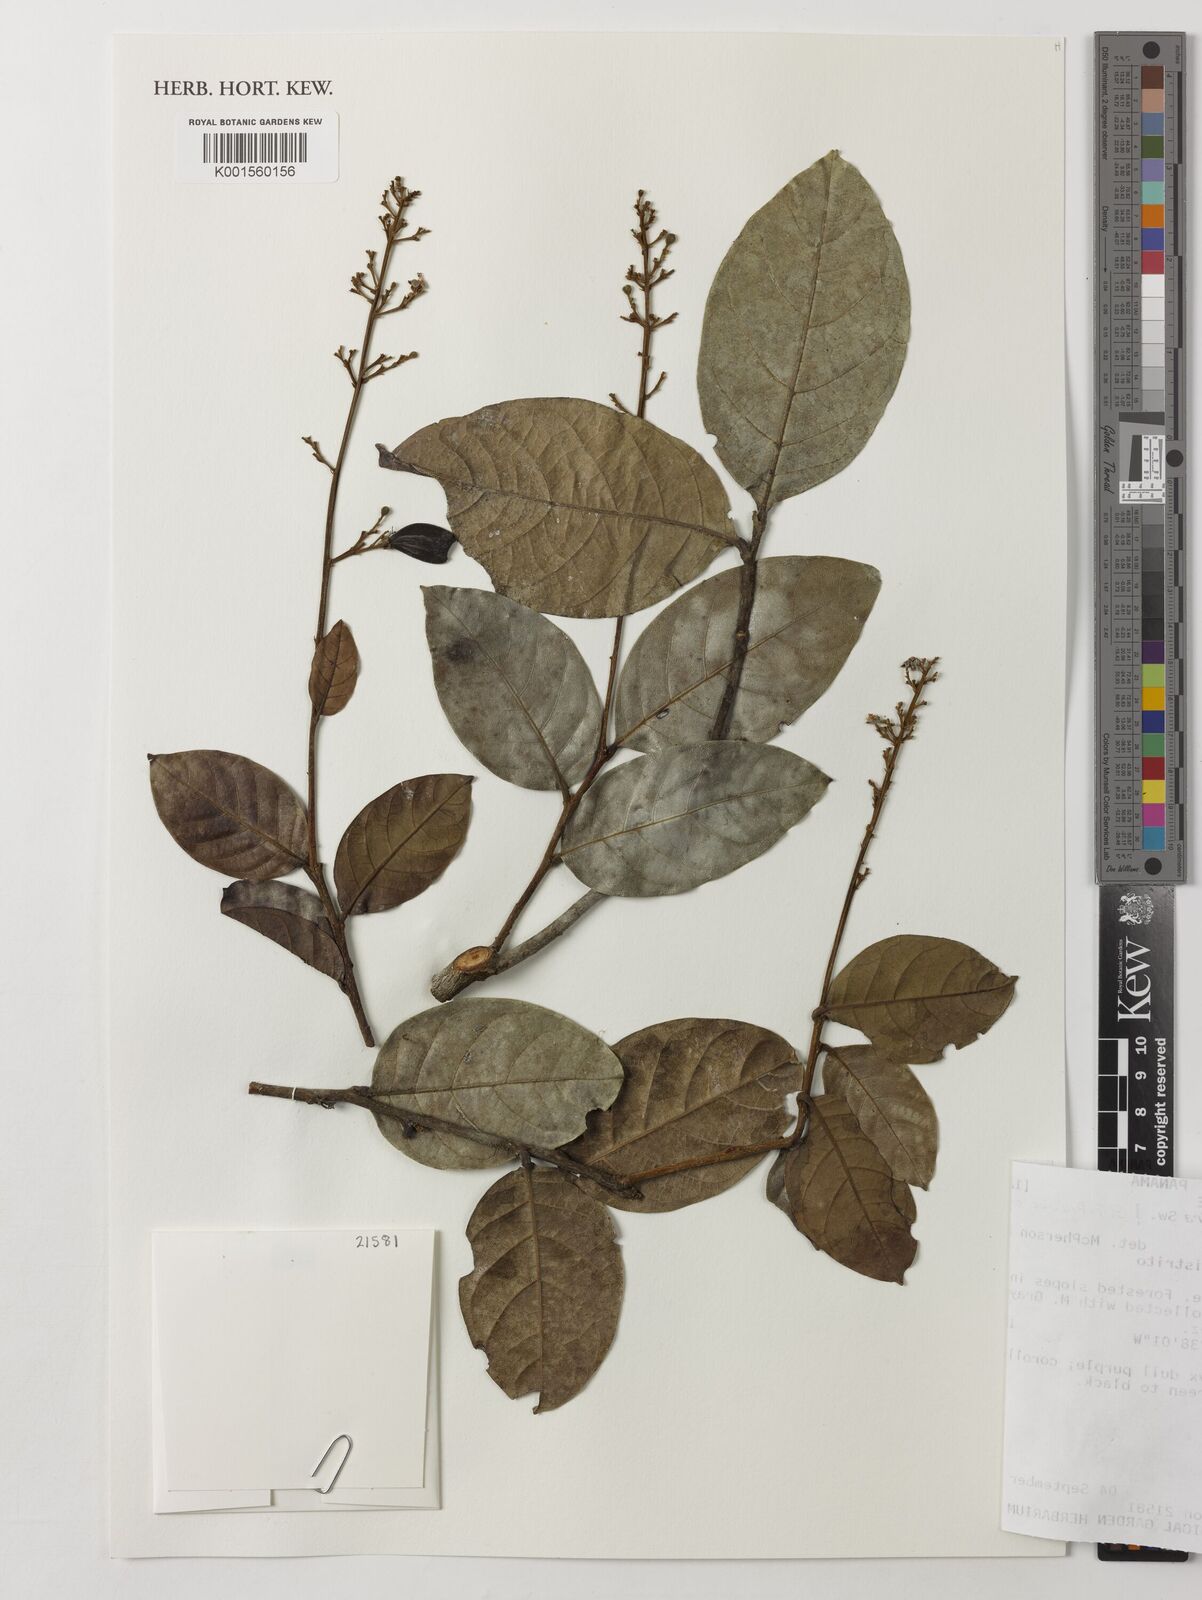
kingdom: Plantae
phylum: Tracheophyta
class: Magnoliopsida
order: Malpighiales
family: Chrysobalanaceae
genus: Hirtella
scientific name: Hirtella triandra
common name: Hairy plum
